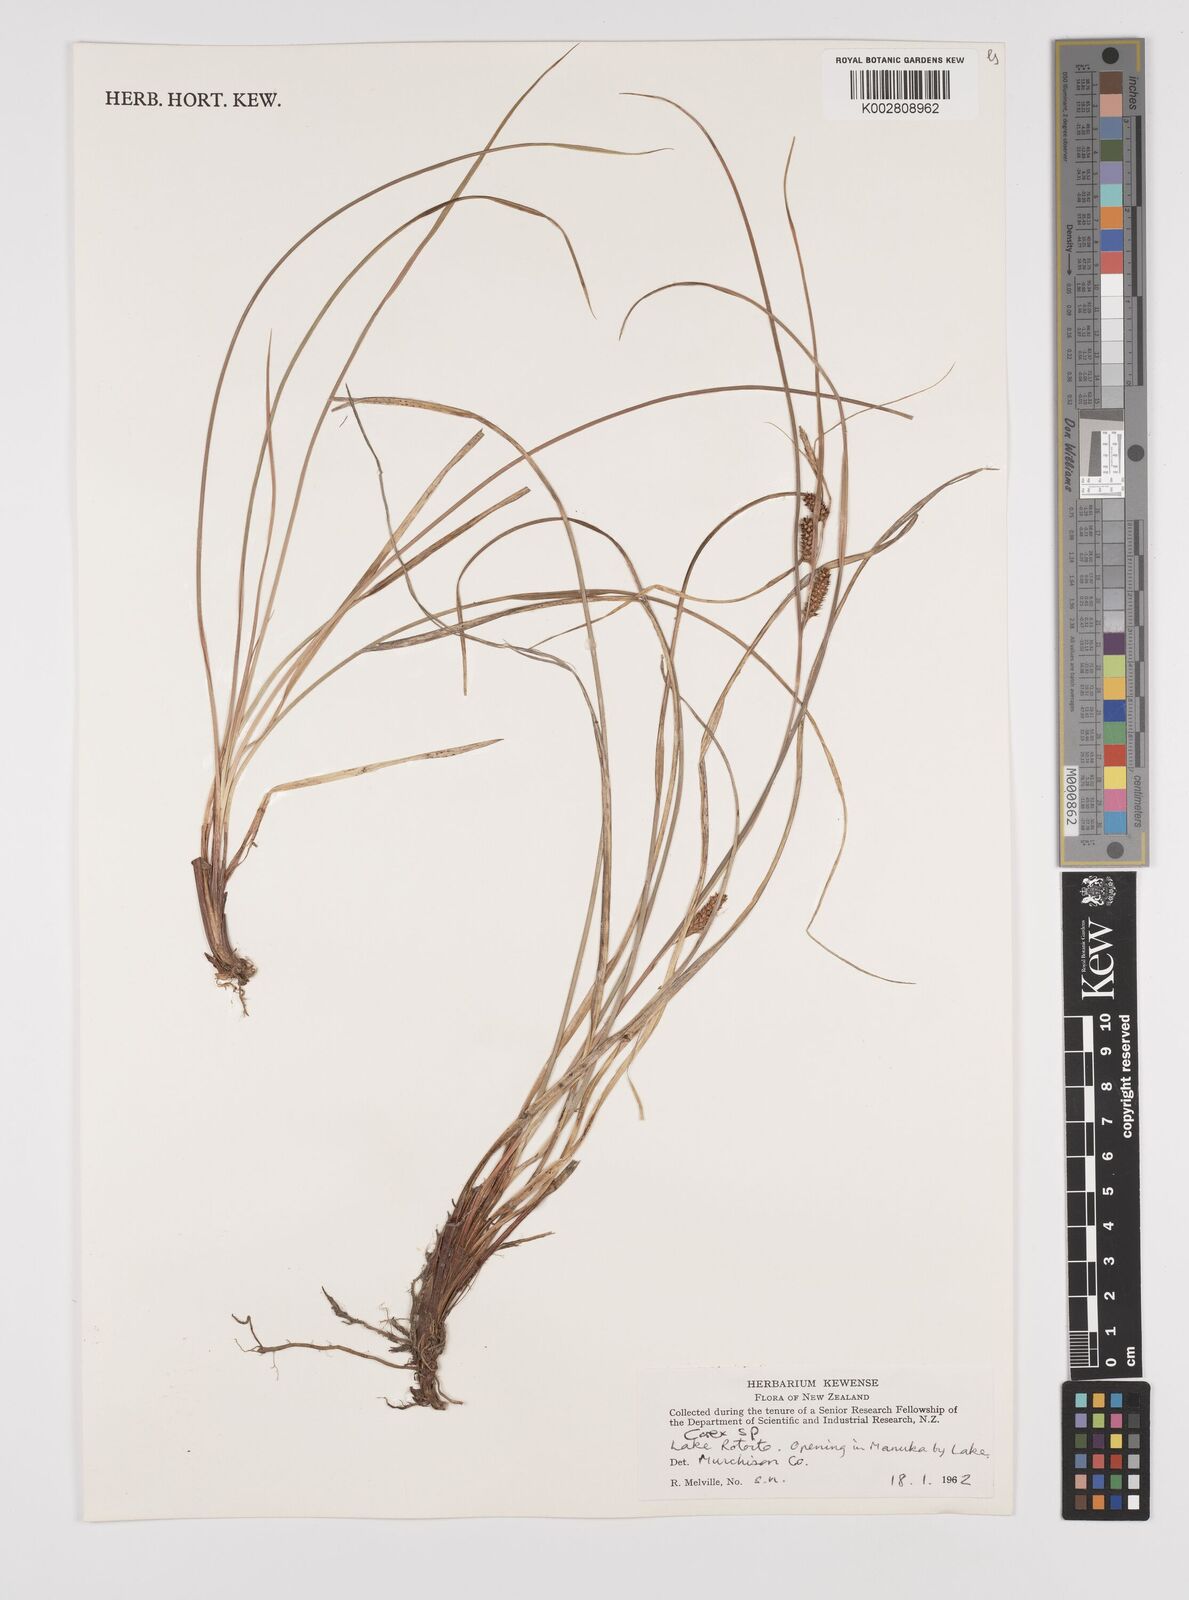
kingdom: Plantae
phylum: Tracheophyta
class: Liliopsida
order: Poales
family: Cyperaceae
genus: Carex
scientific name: Carex
